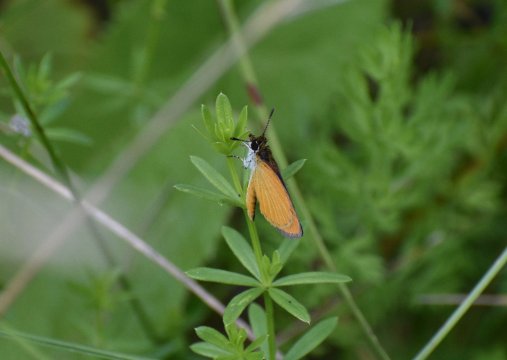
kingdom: Animalia
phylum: Arthropoda
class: Insecta
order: Lepidoptera
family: Hesperiidae
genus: Ancyloxypha
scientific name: Ancyloxypha numitor
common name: Least Skipper
